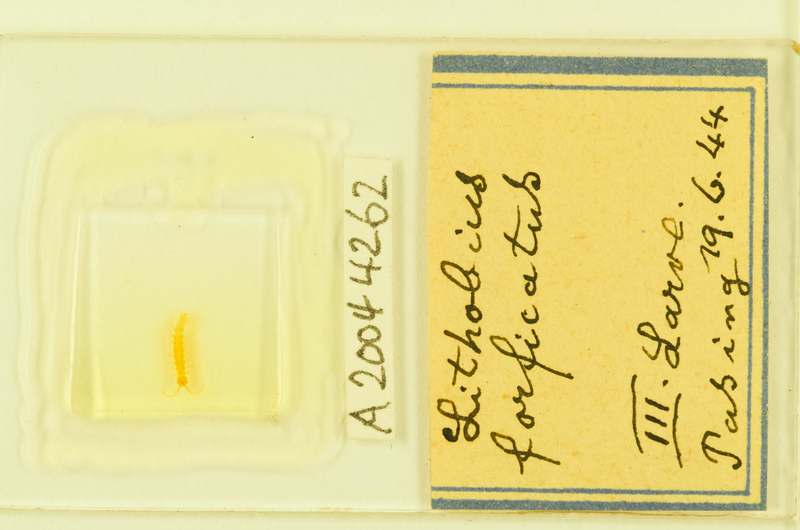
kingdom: Animalia
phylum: Arthropoda
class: Chilopoda
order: Lithobiomorpha
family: Lithobiidae
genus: Lithobius
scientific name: Lithobius forficatus
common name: Centipede
